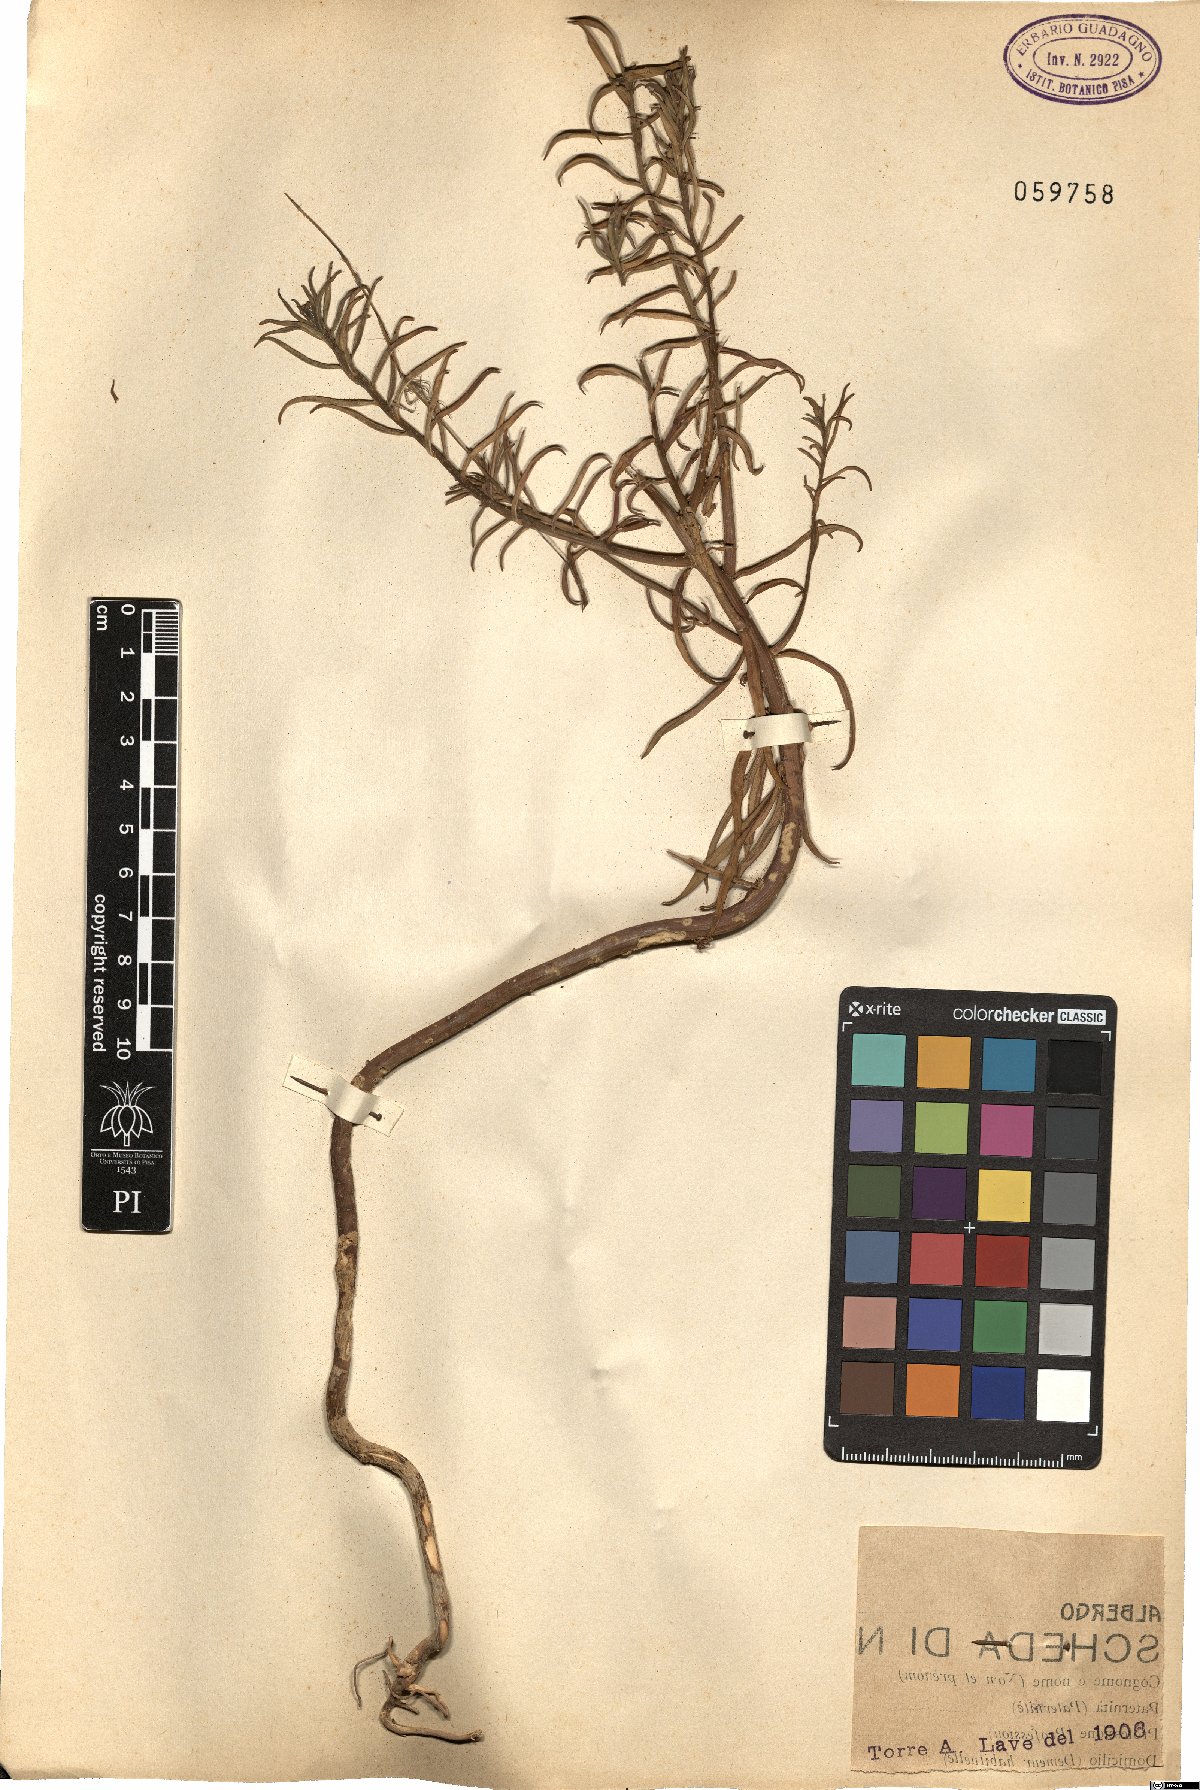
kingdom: Plantae
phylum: Tracheophyta
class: Magnoliopsida
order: Lamiales
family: Plantaginaceae
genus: Antirrhinum
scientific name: Antirrhinum
